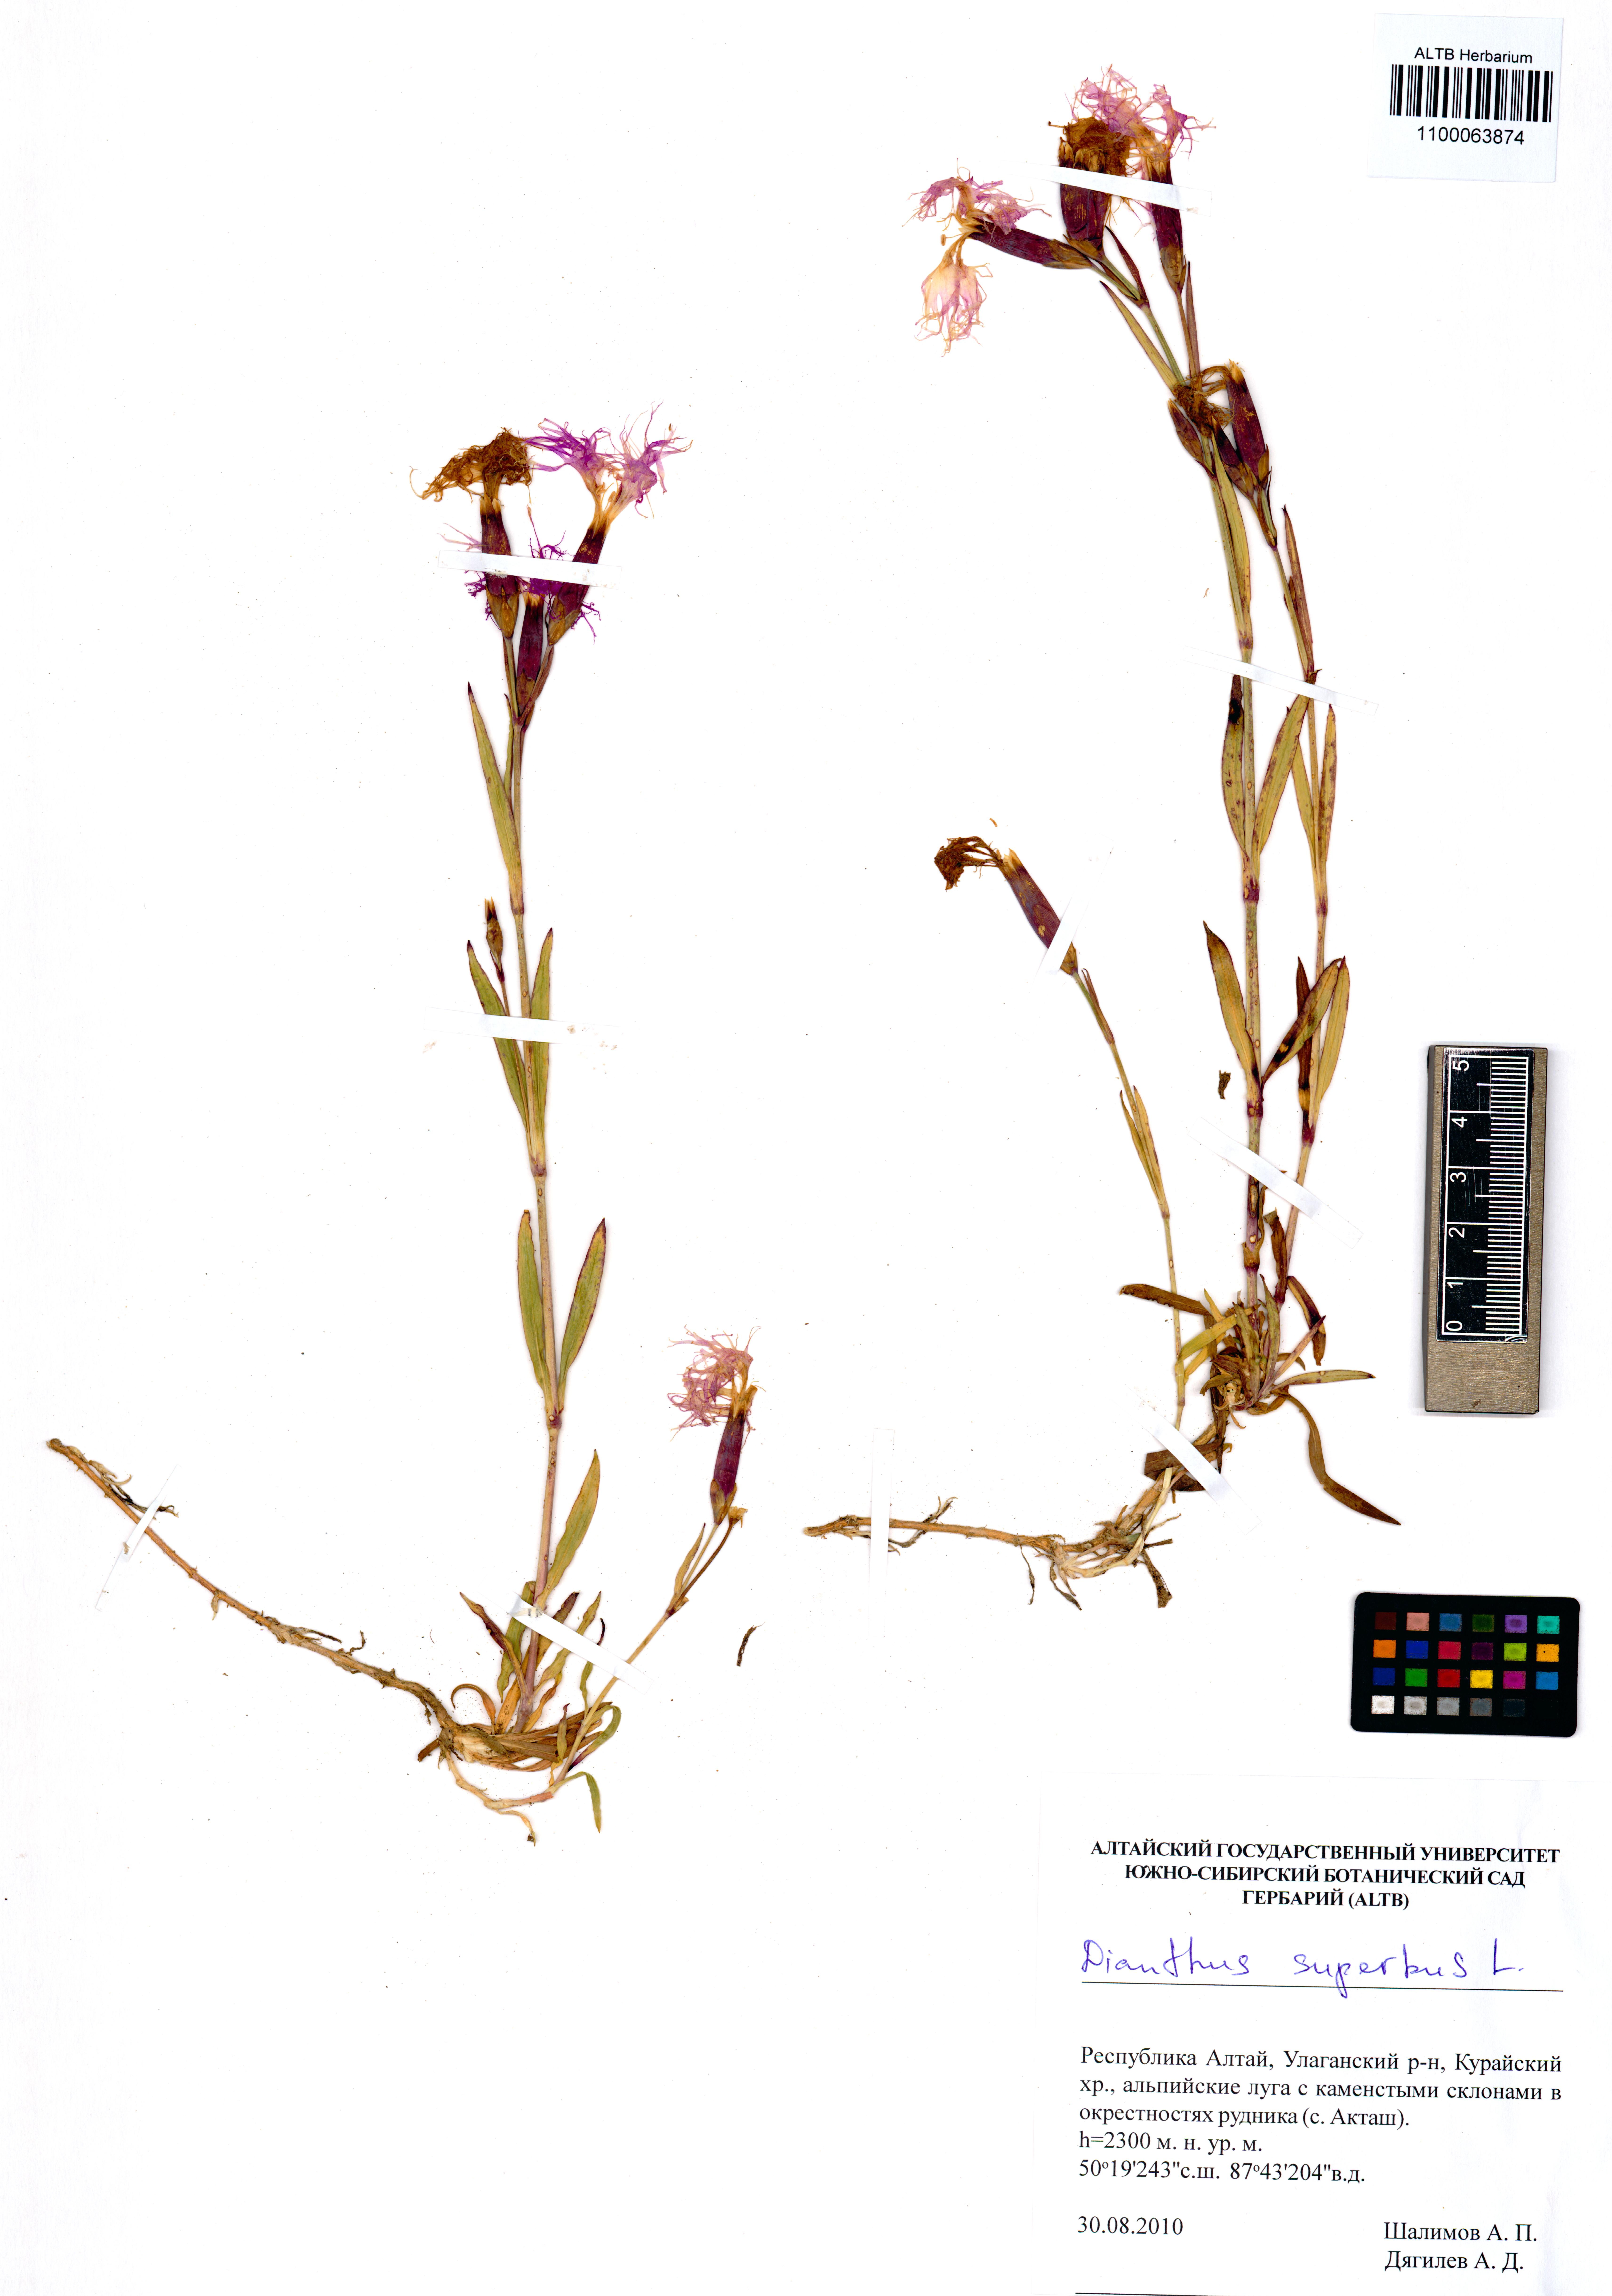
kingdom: Plantae
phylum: Tracheophyta
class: Magnoliopsida
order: Caryophyllales
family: Caryophyllaceae
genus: Dianthus
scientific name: Dianthus superbus
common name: Fringed pink
